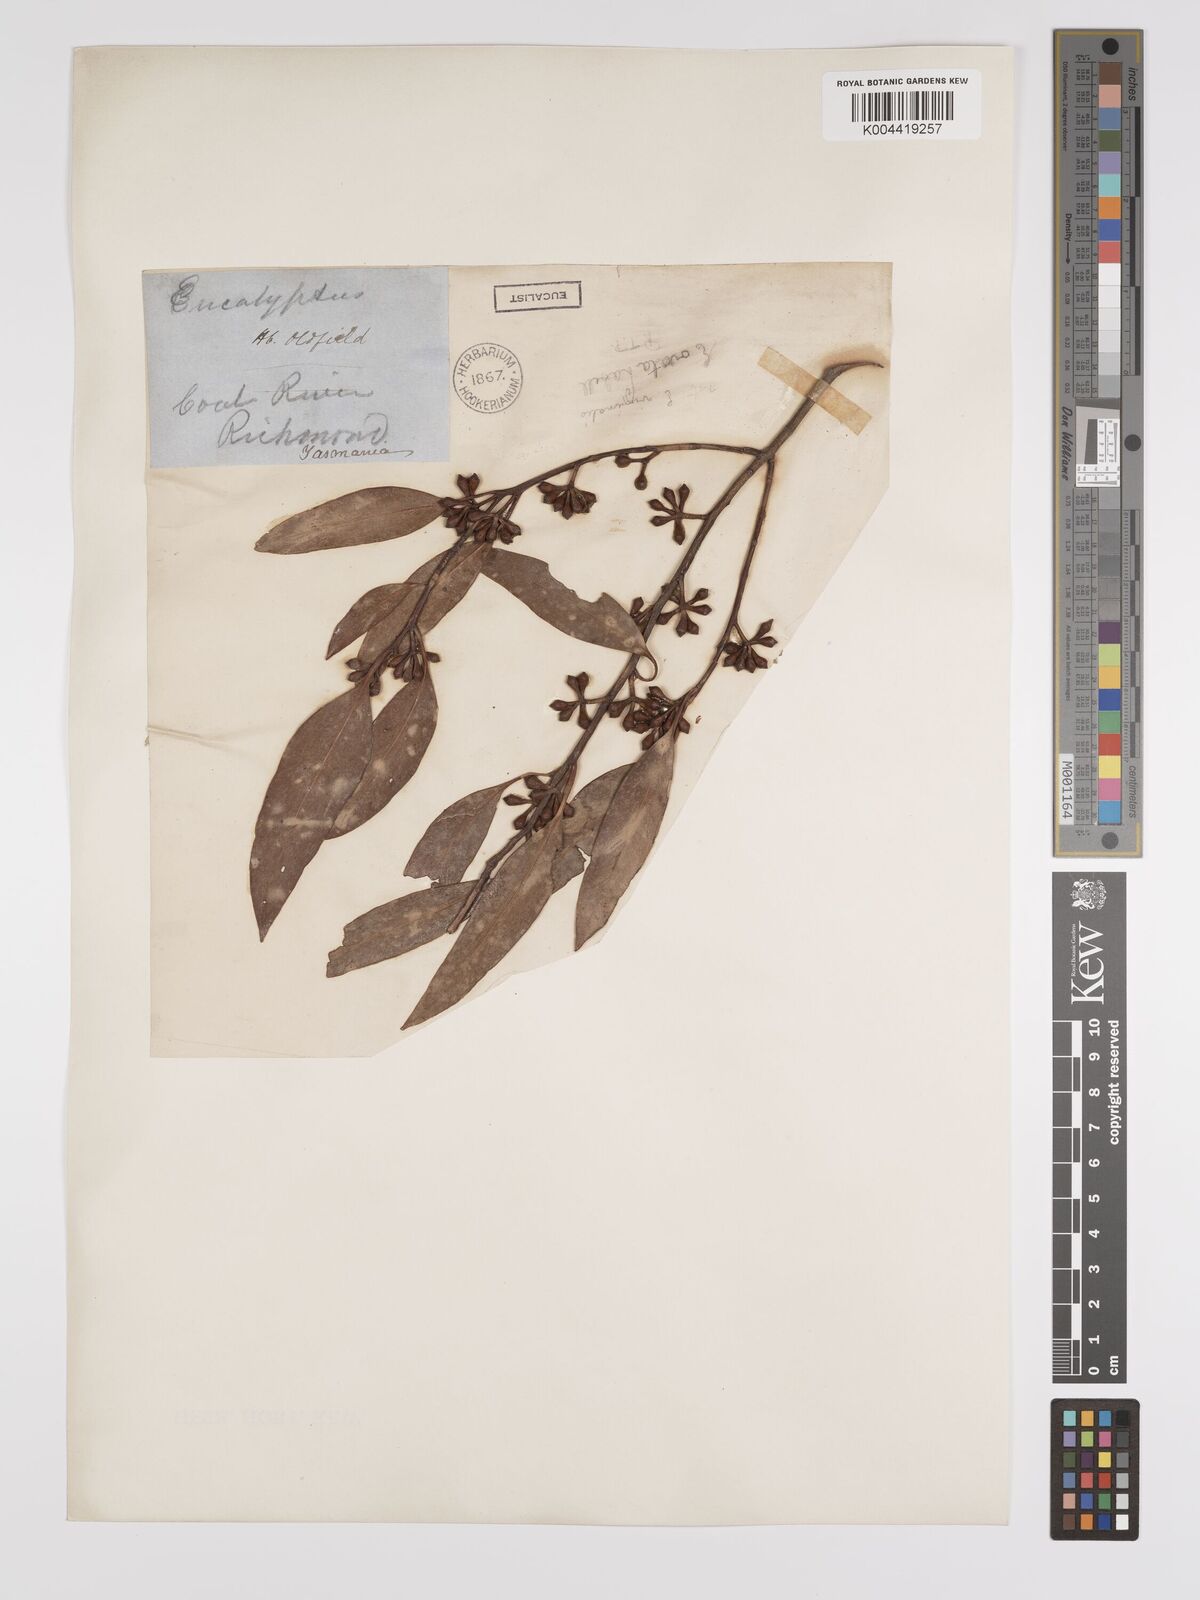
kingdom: Plantae
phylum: Tracheophyta
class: Magnoliopsida
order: Myrtales
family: Myrtaceae
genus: Eucalyptus
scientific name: Eucalyptus ovata
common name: Black-gum
